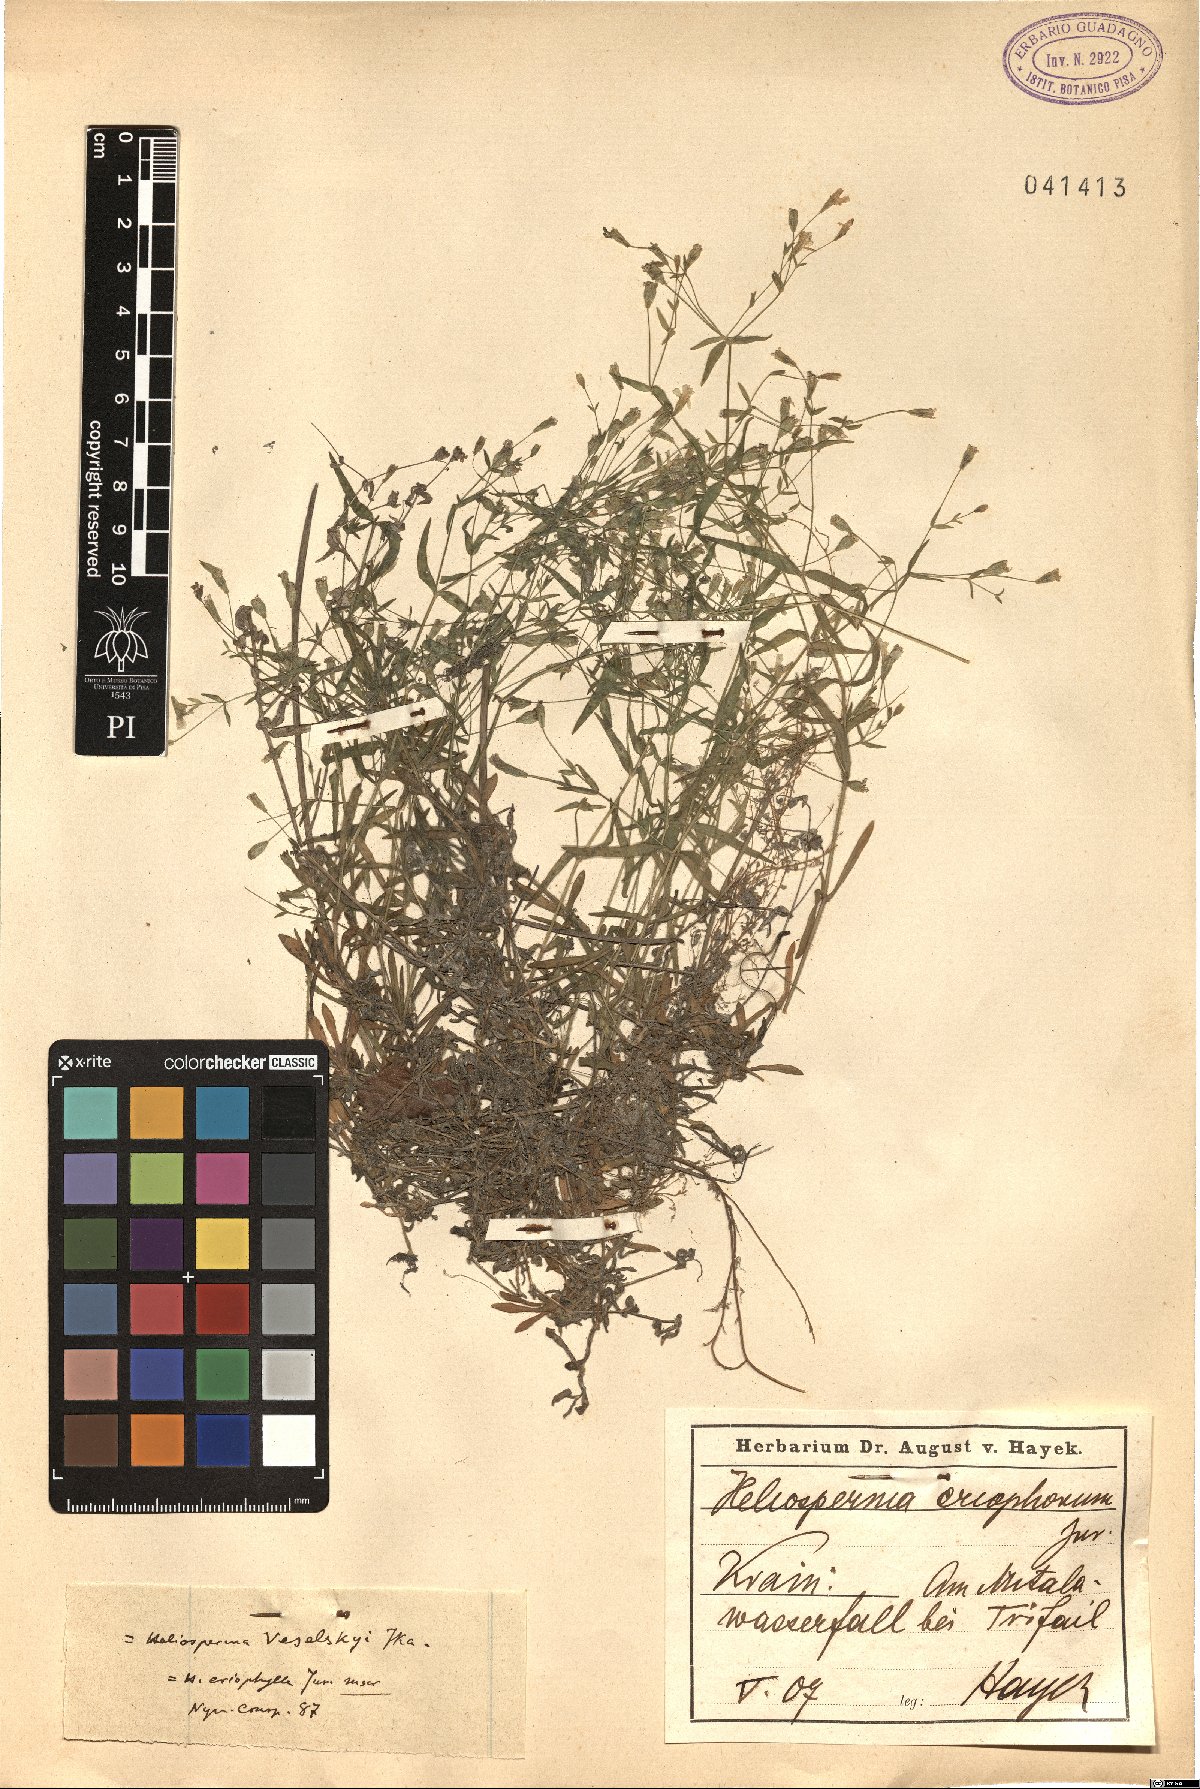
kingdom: Plantae
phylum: Tracheophyta
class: Magnoliopsida
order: Caryophyllales
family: Caryophyllaceae
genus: Heliosperma
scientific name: Heliosperma veselskyi
